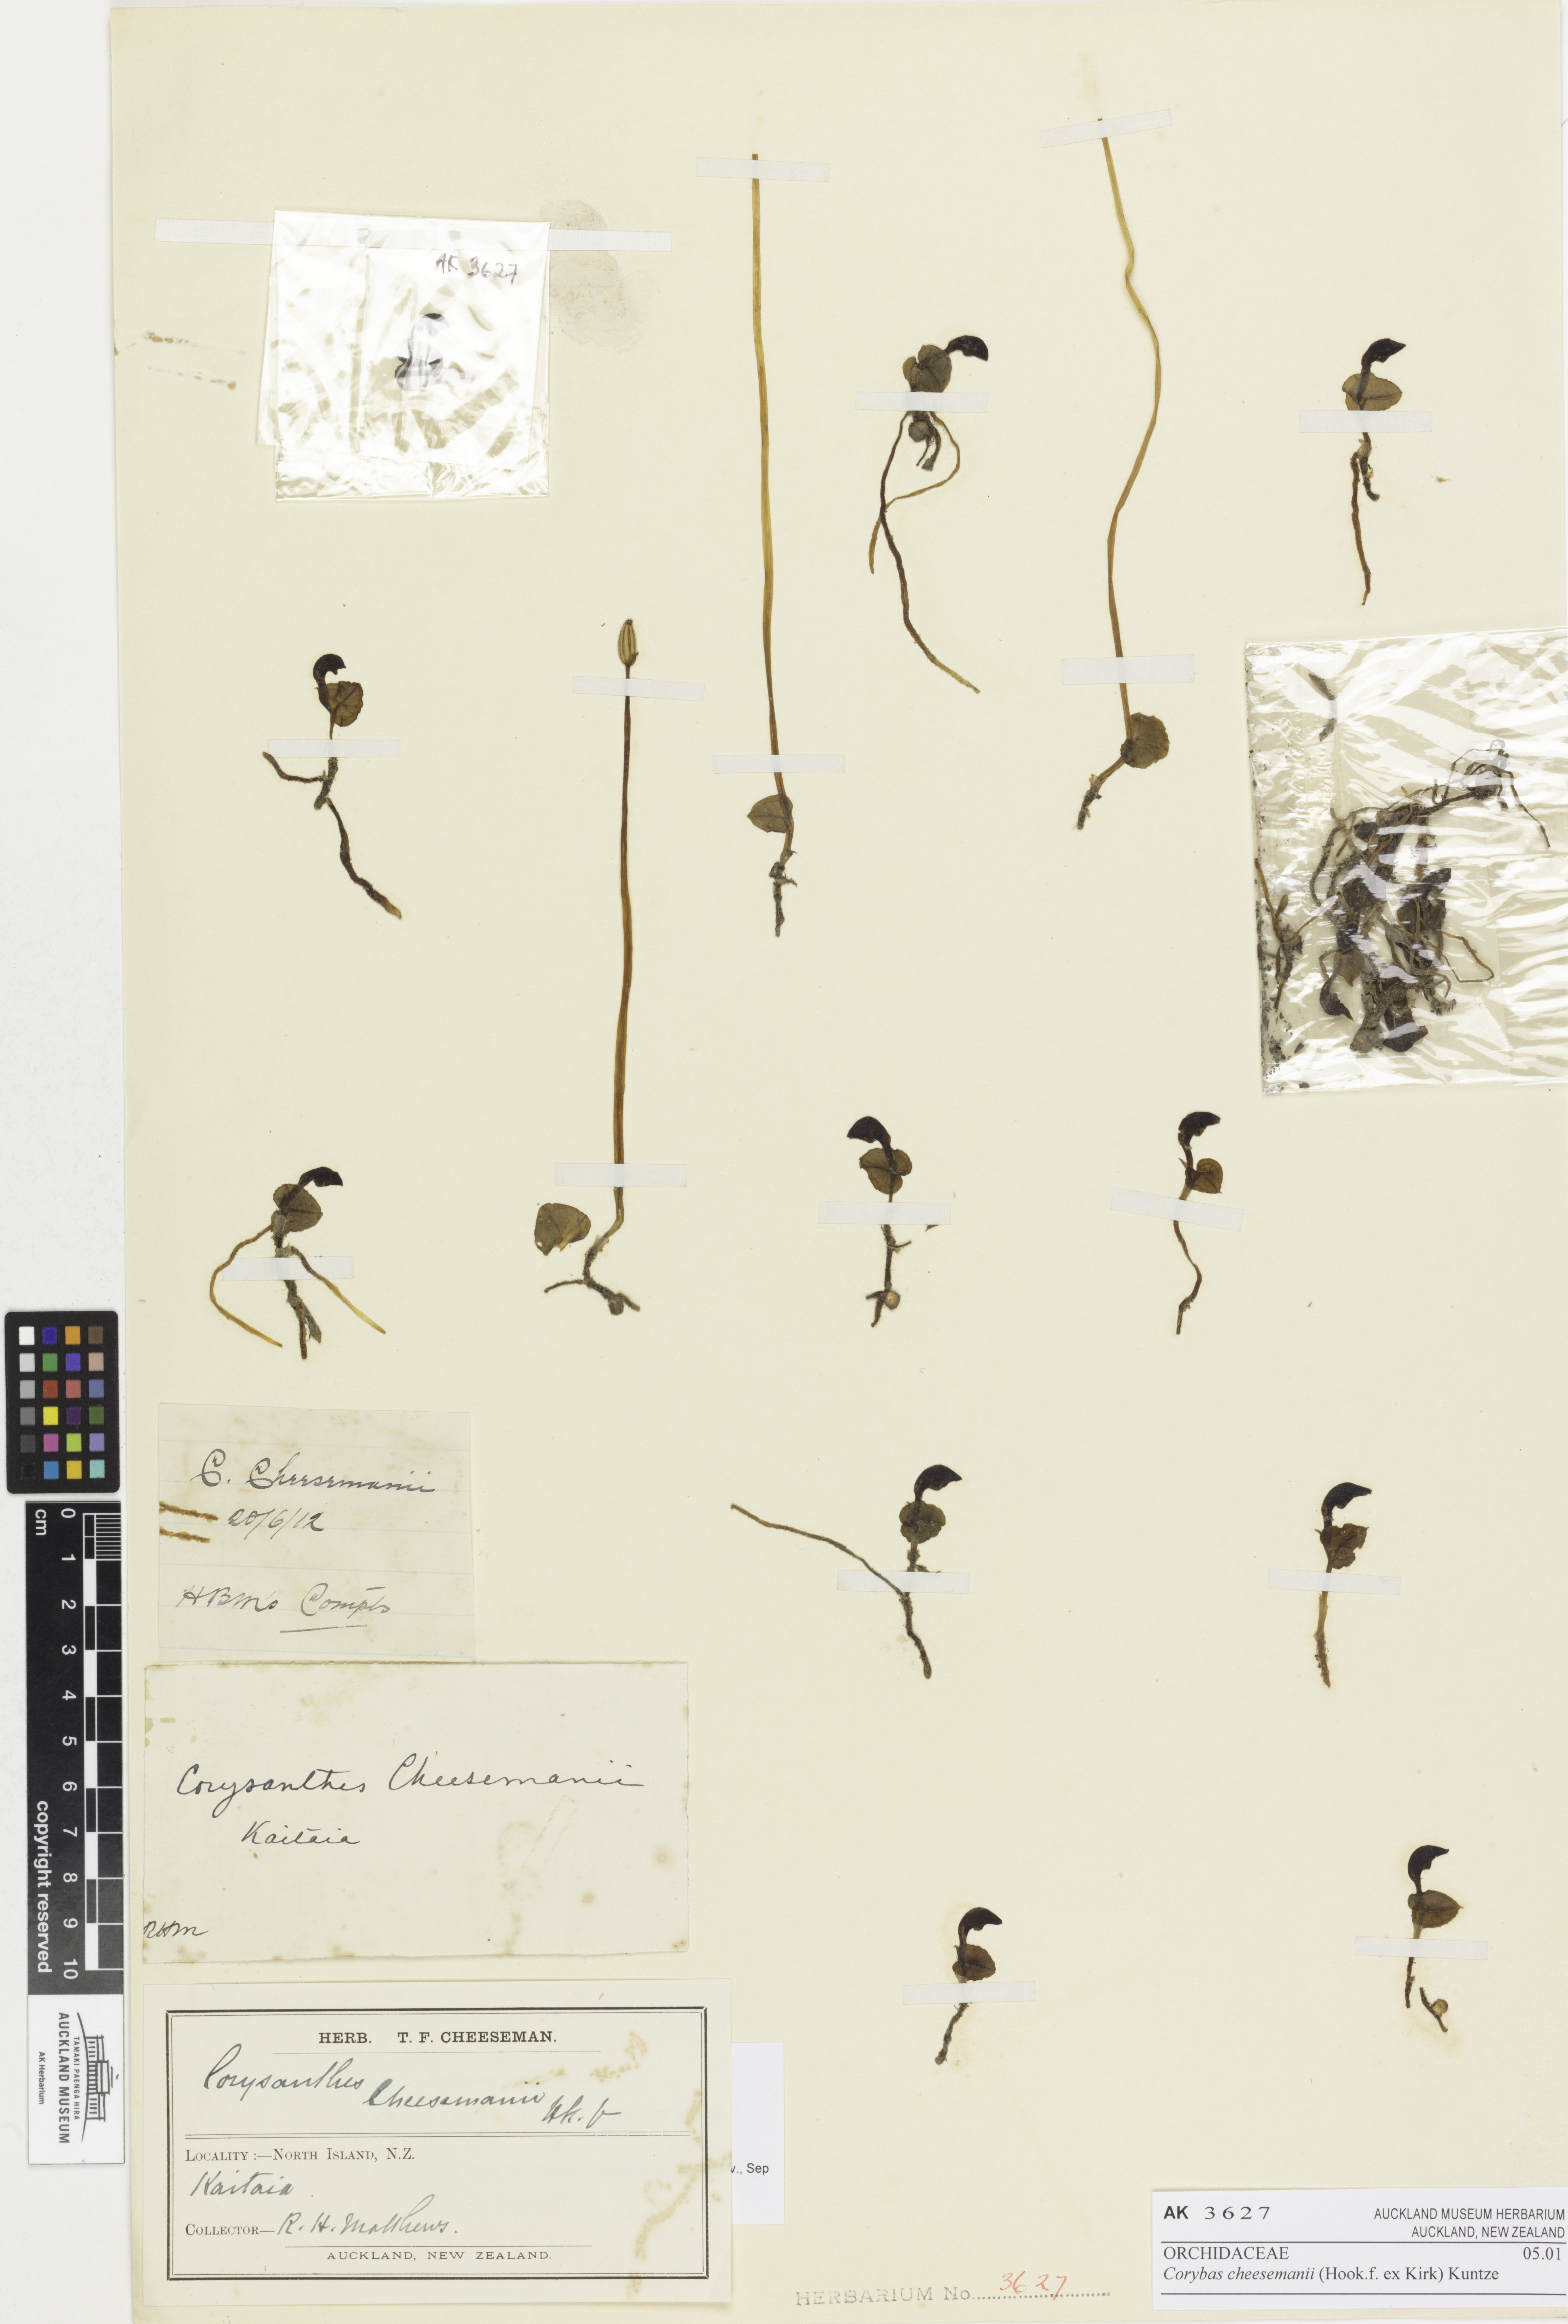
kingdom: Plantae
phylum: Tracheophyta
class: Liliopsida
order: Asparagales
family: Orchidaceae
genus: Corybas
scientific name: Corybas cheesemanii
